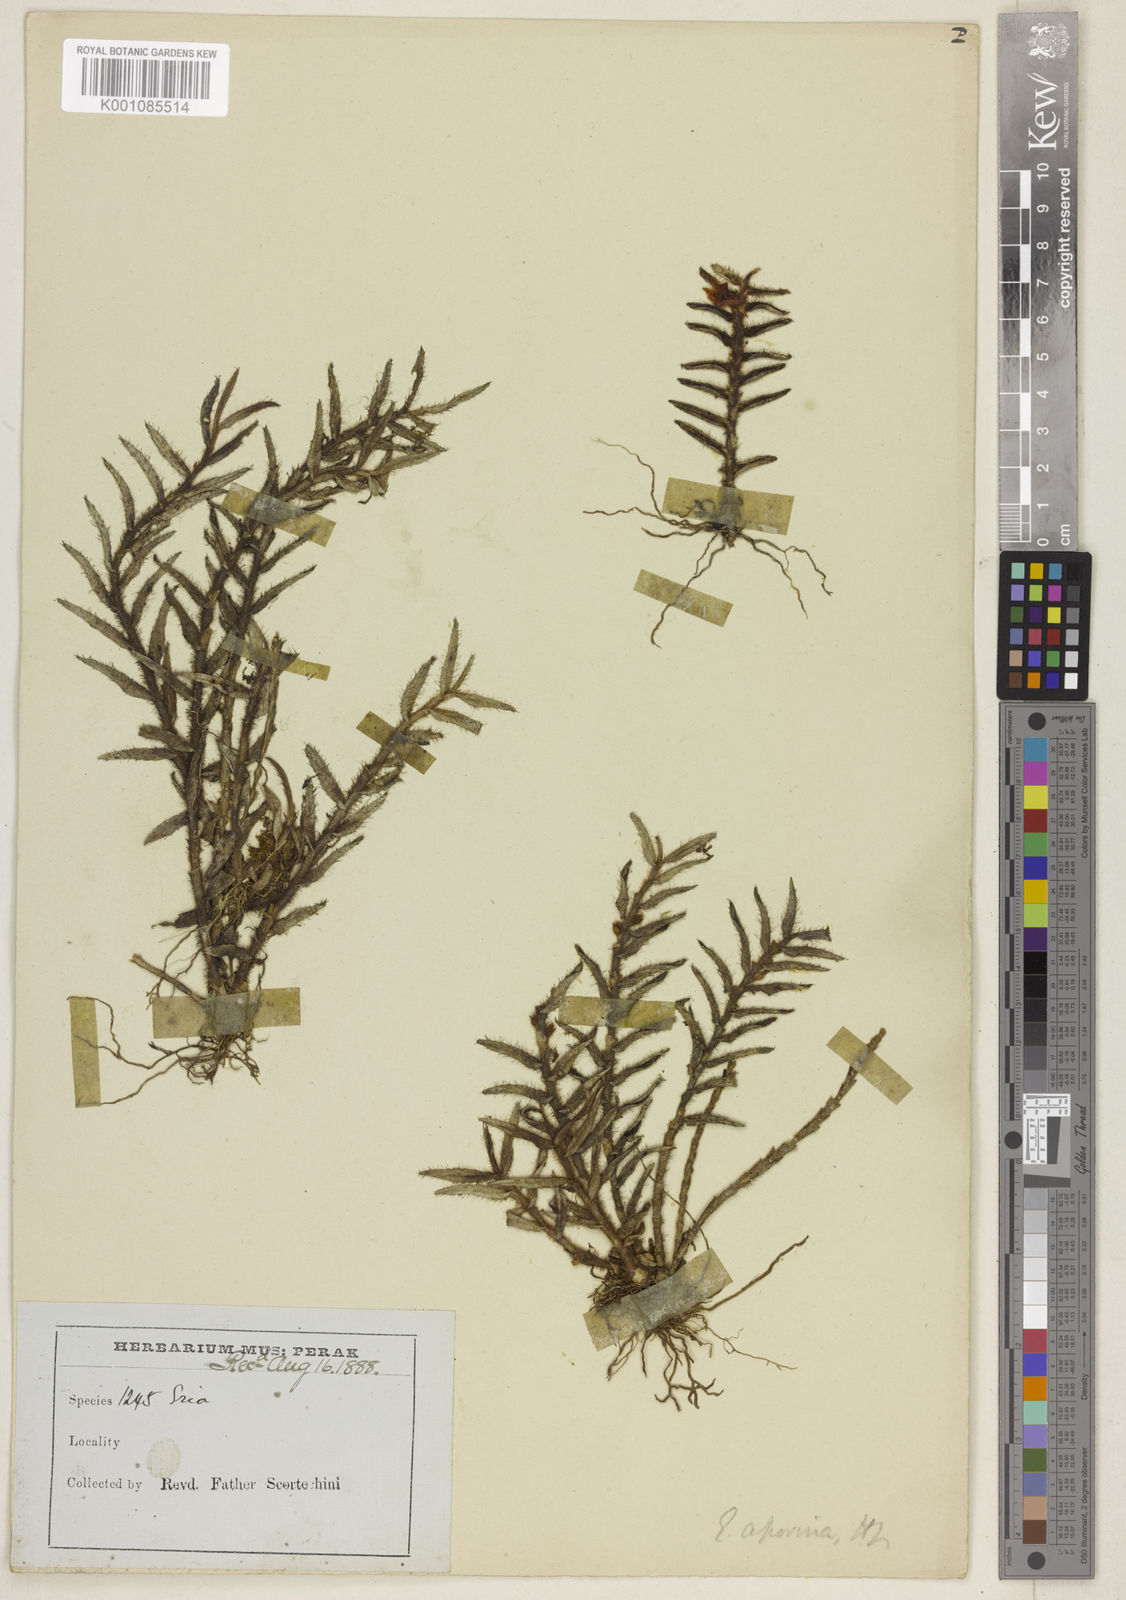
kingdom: Plantae
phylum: Tracheophyta
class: Liliopsida
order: Asparagales
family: Orchidaceae
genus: Trichotosia
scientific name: Trichotosia aporina
